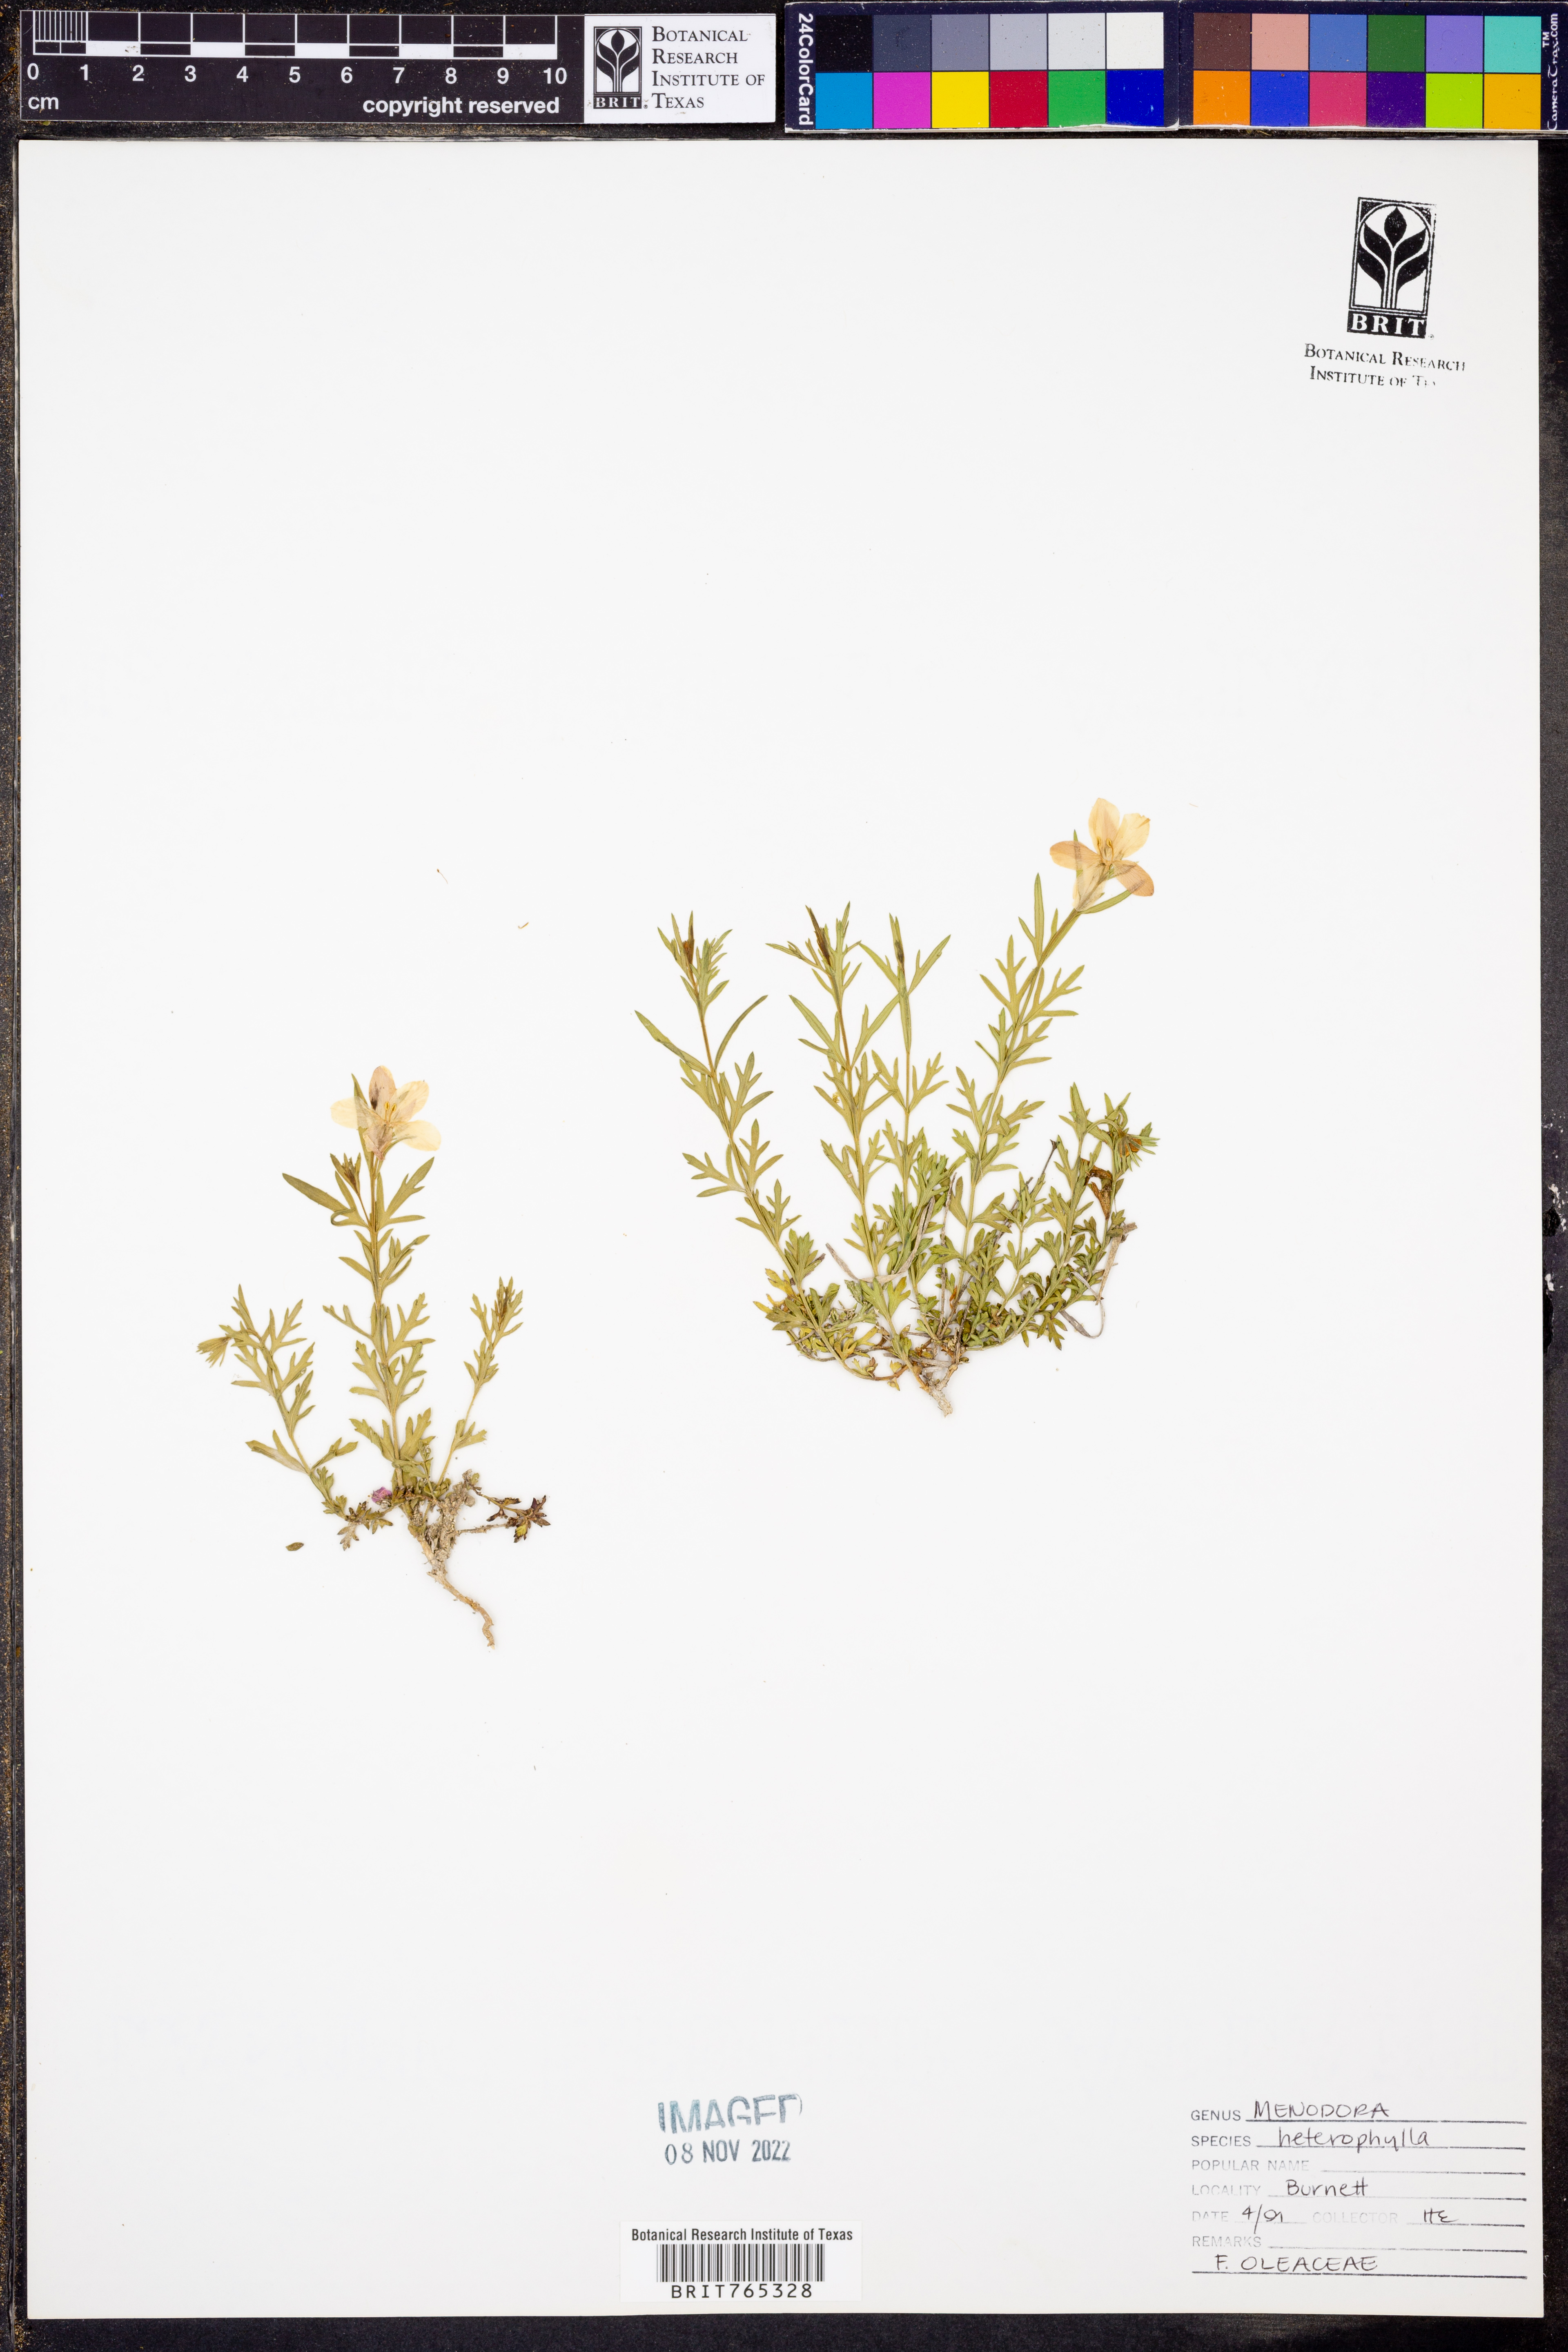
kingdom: Plantae
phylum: Tracheophyta
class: Magnoliopsida
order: Lamiales
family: Oleaceae
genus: Menodora
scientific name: Menodora heterophylla
